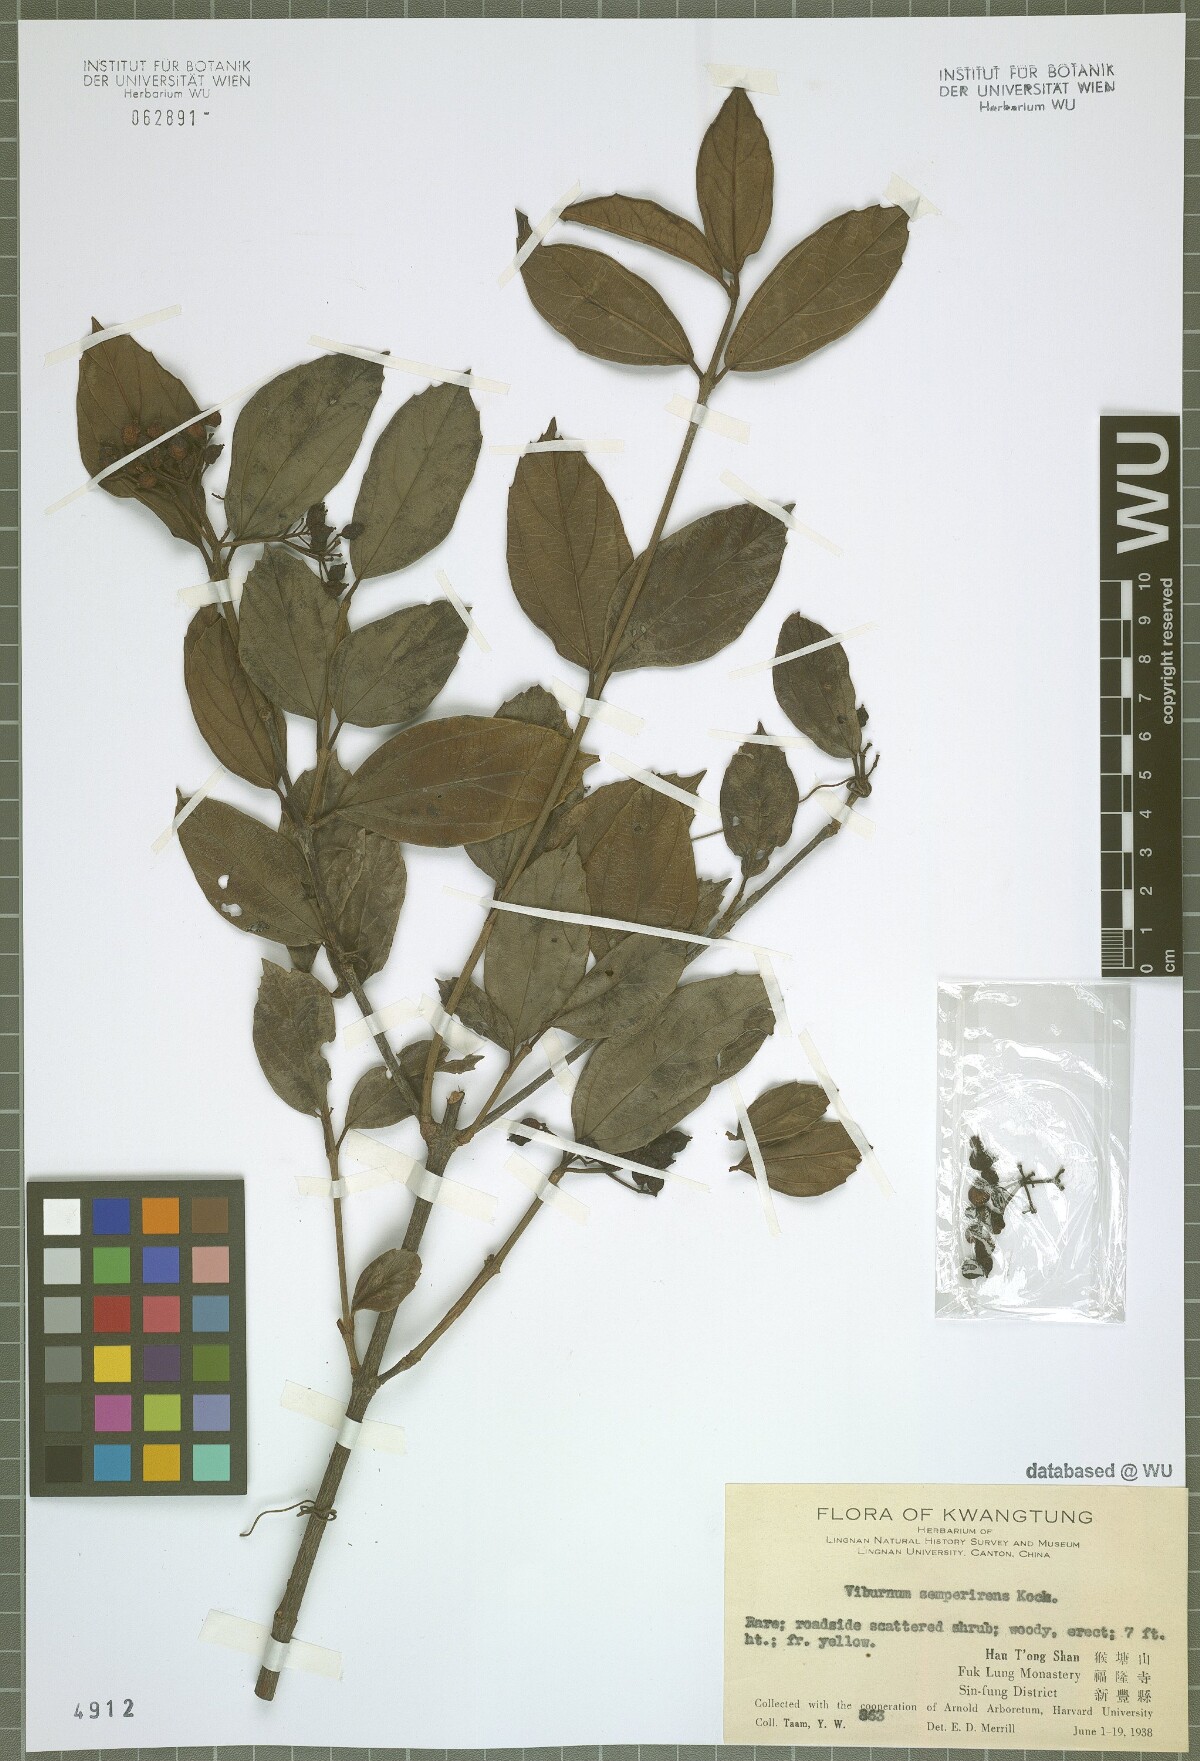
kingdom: Plantae
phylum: Tracheophyta
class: Magnoliopsida
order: Dipsacales
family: Viburnaceae
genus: Viburnum
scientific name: Viburnum sempervirens
